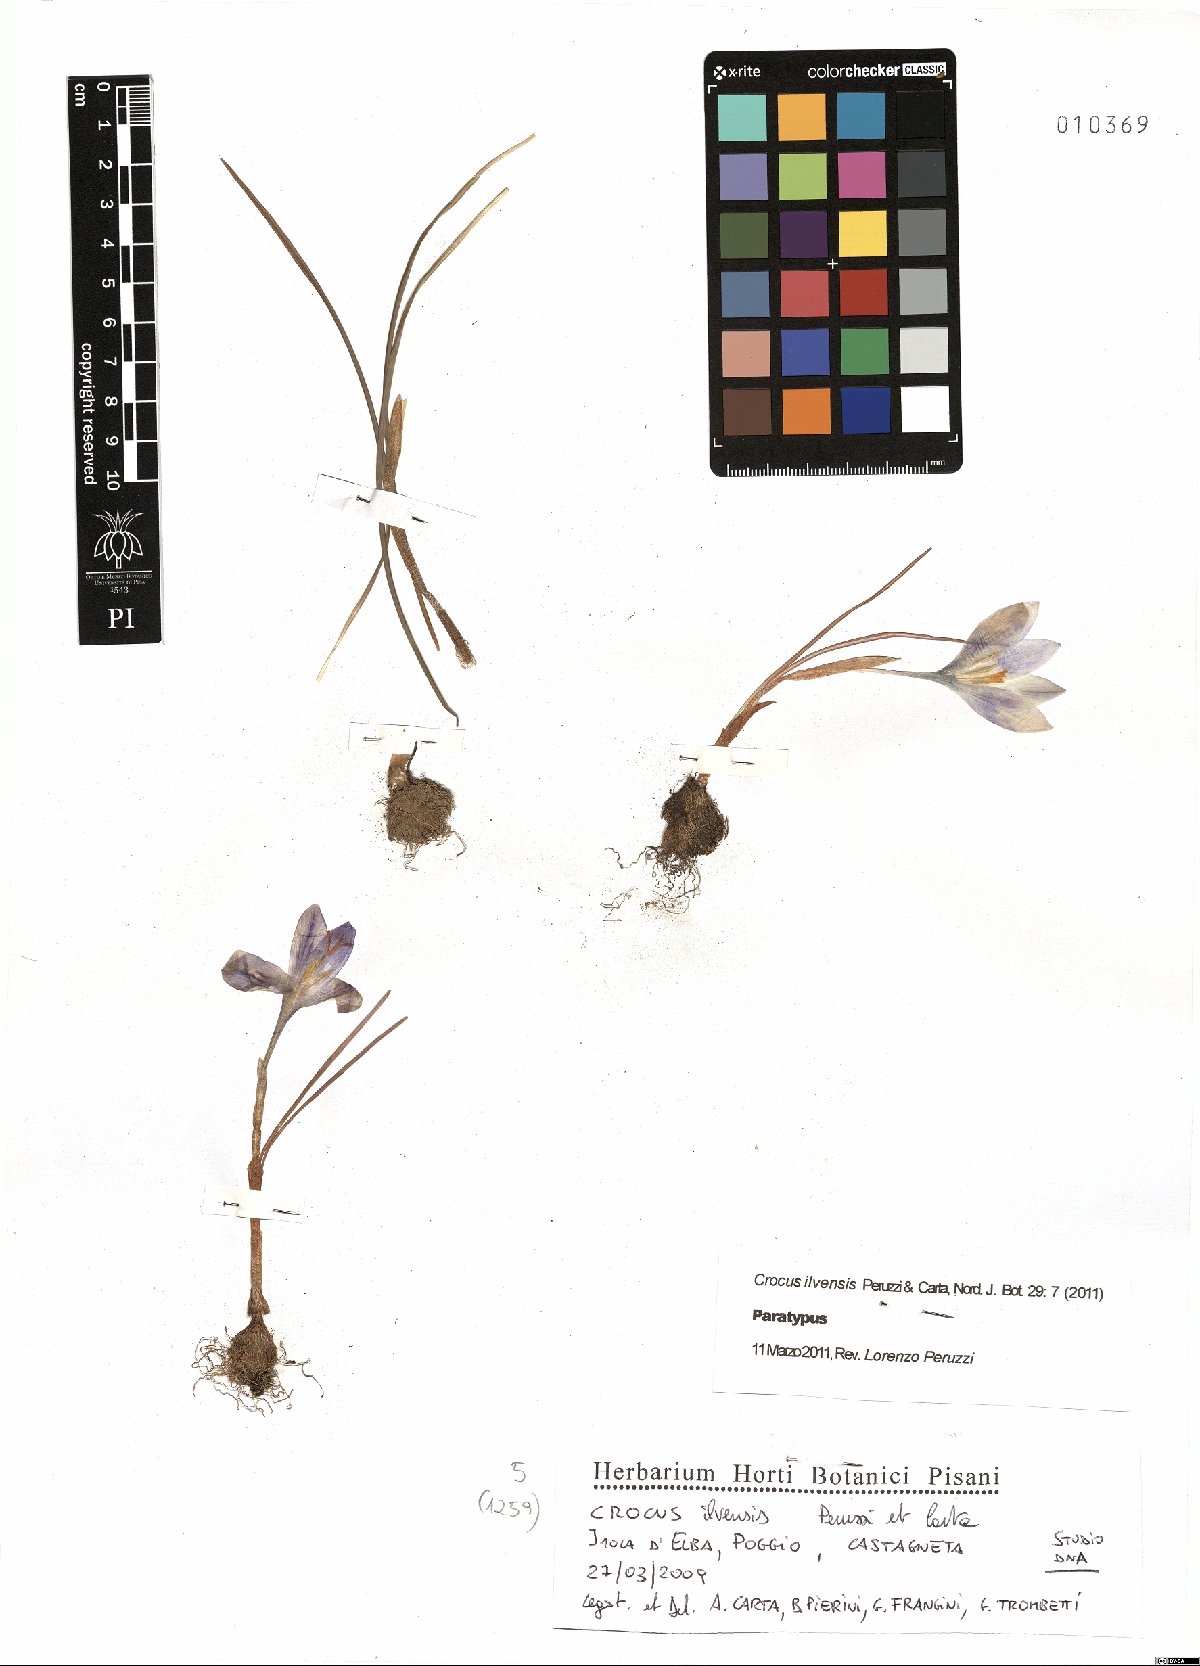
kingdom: Plantae
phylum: Tracheophyta
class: Liliopsida
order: Asparagales
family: Iridaceae
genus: Crocus
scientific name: Crocus ilvensis
